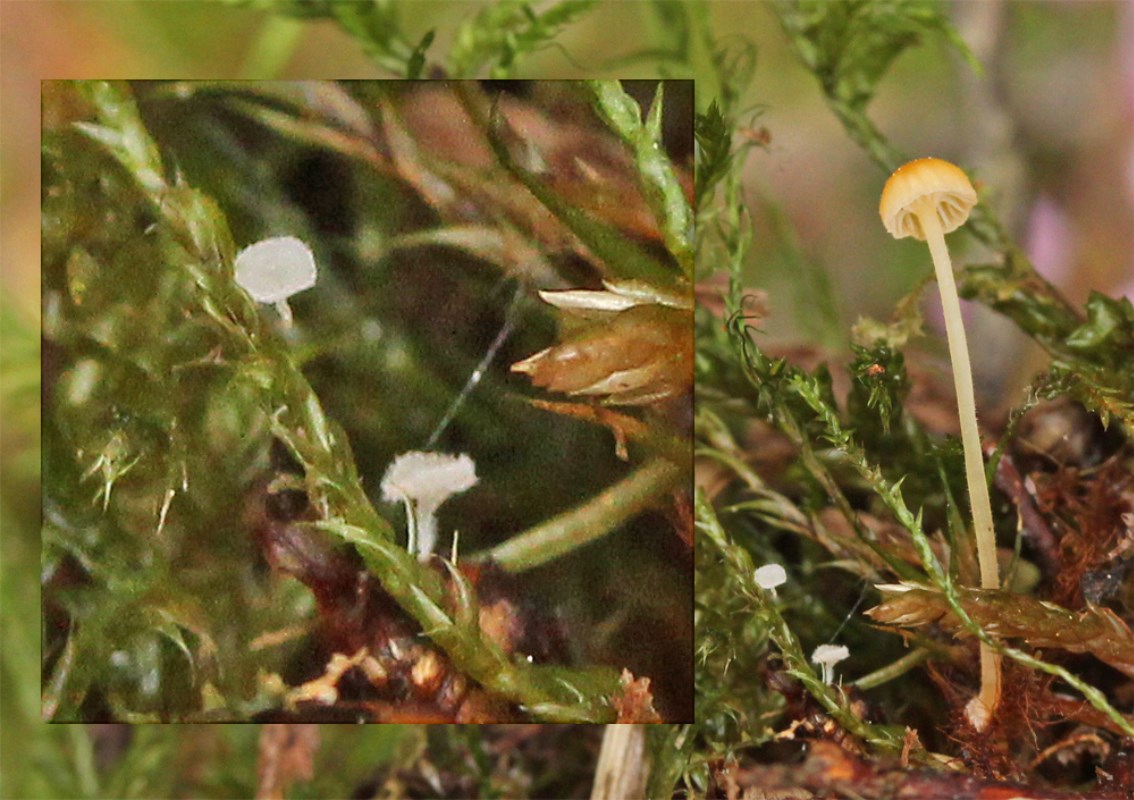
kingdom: Fungi
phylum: Ascomycota
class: Leotiomycetes
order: Helotiales
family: Lachnaceae
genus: Lachnum
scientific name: Lachnum virgineum
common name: jomfru-frynseskive
